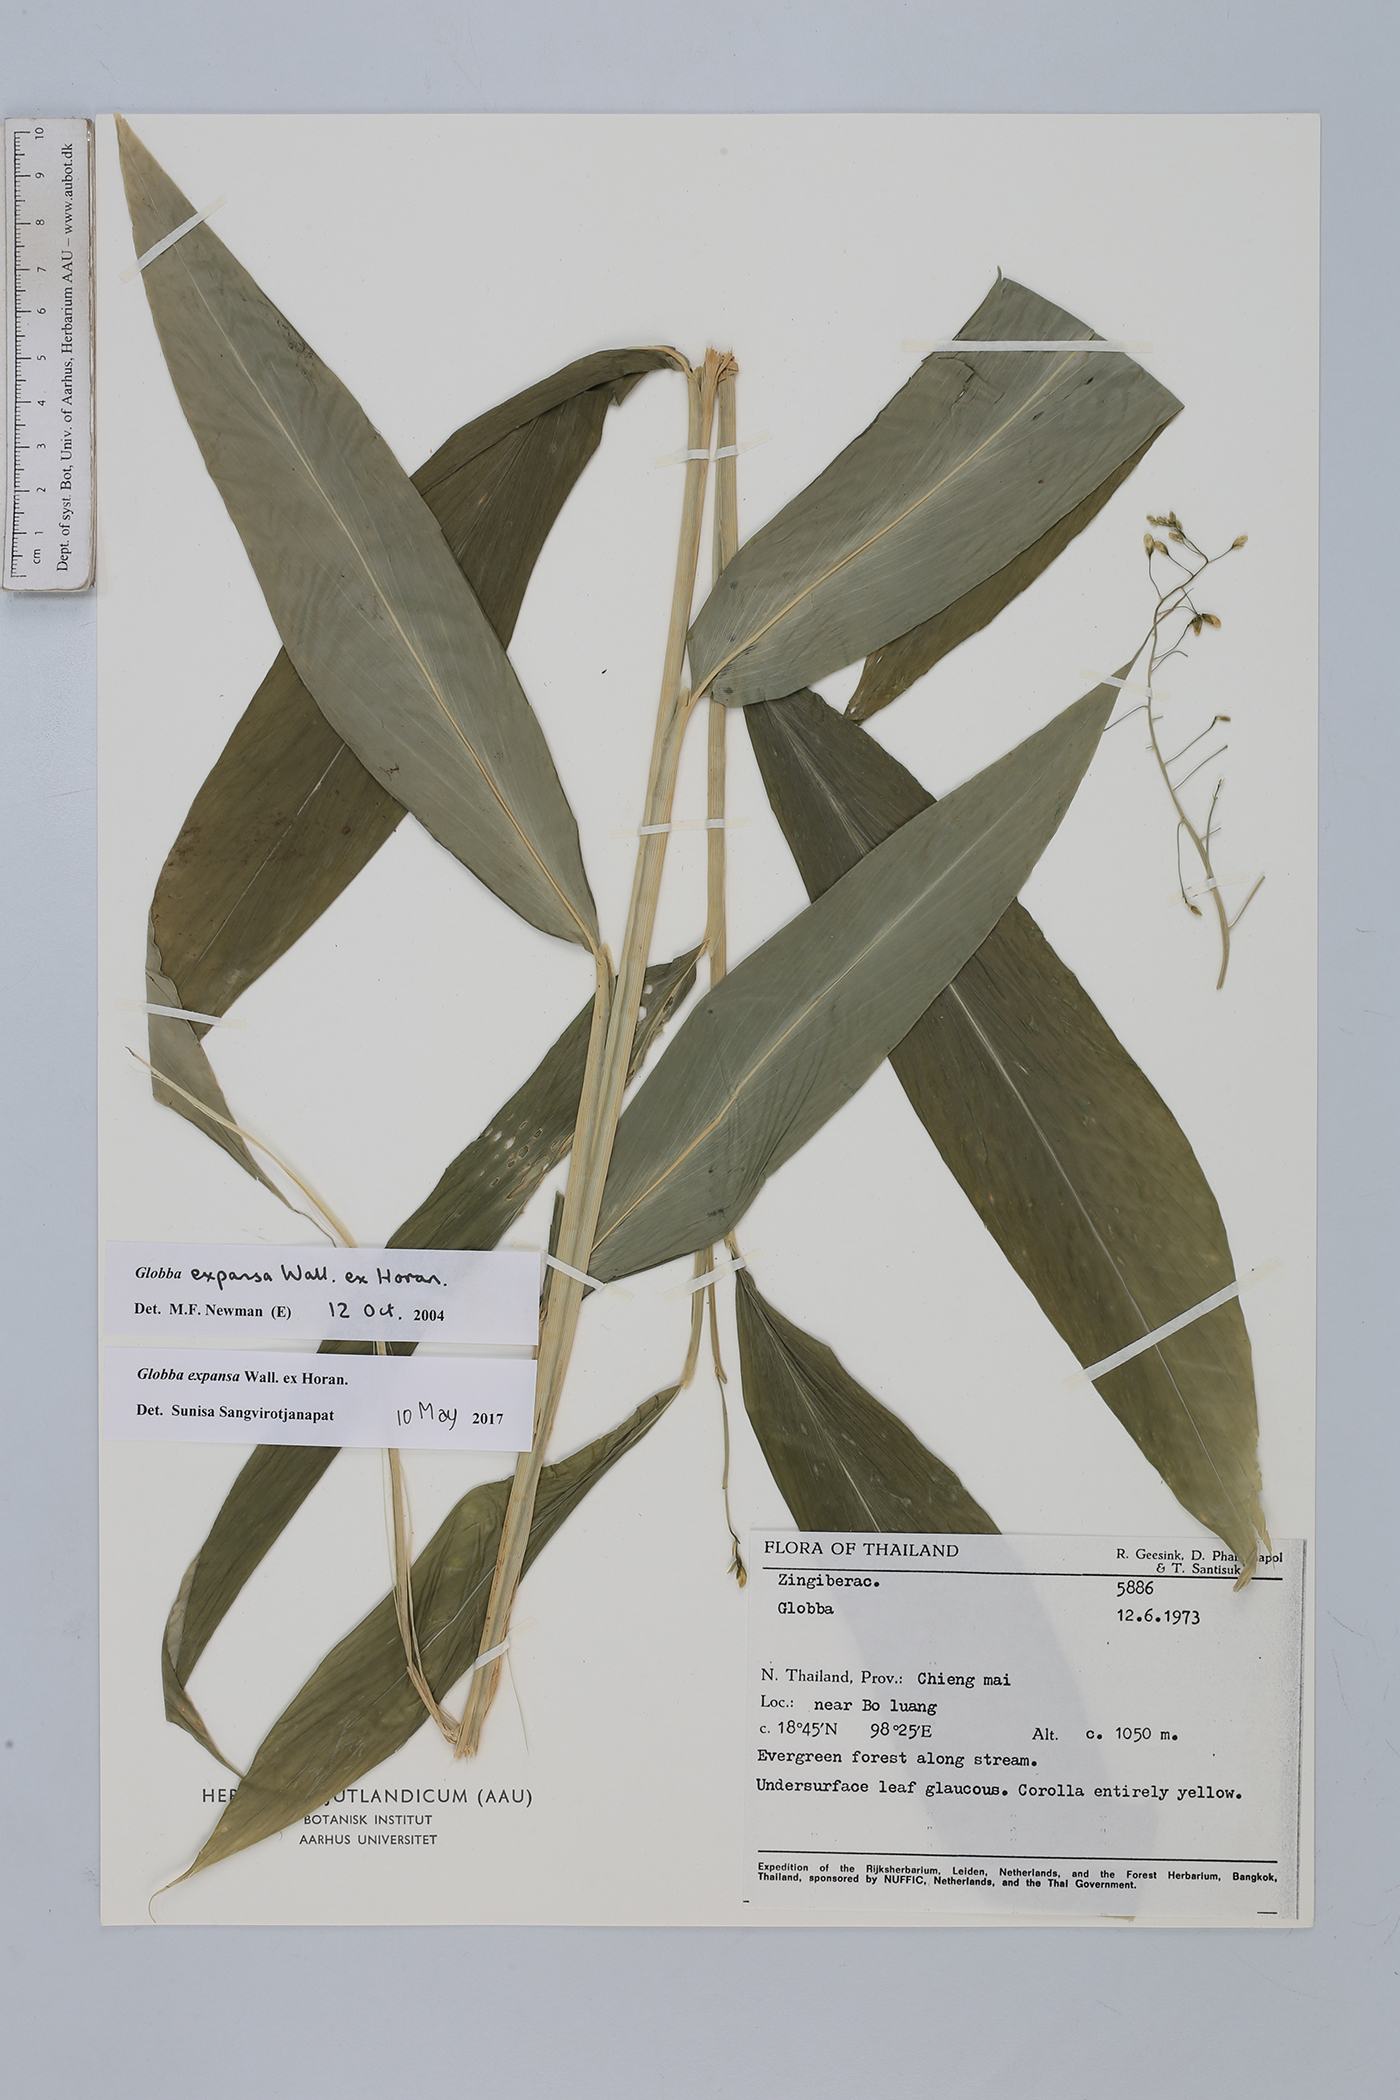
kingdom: Plantae
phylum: Tracheophyta
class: Liliopsida
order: Zingiberales
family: Zingiberaceae
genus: Globba
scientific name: Globba expansa
